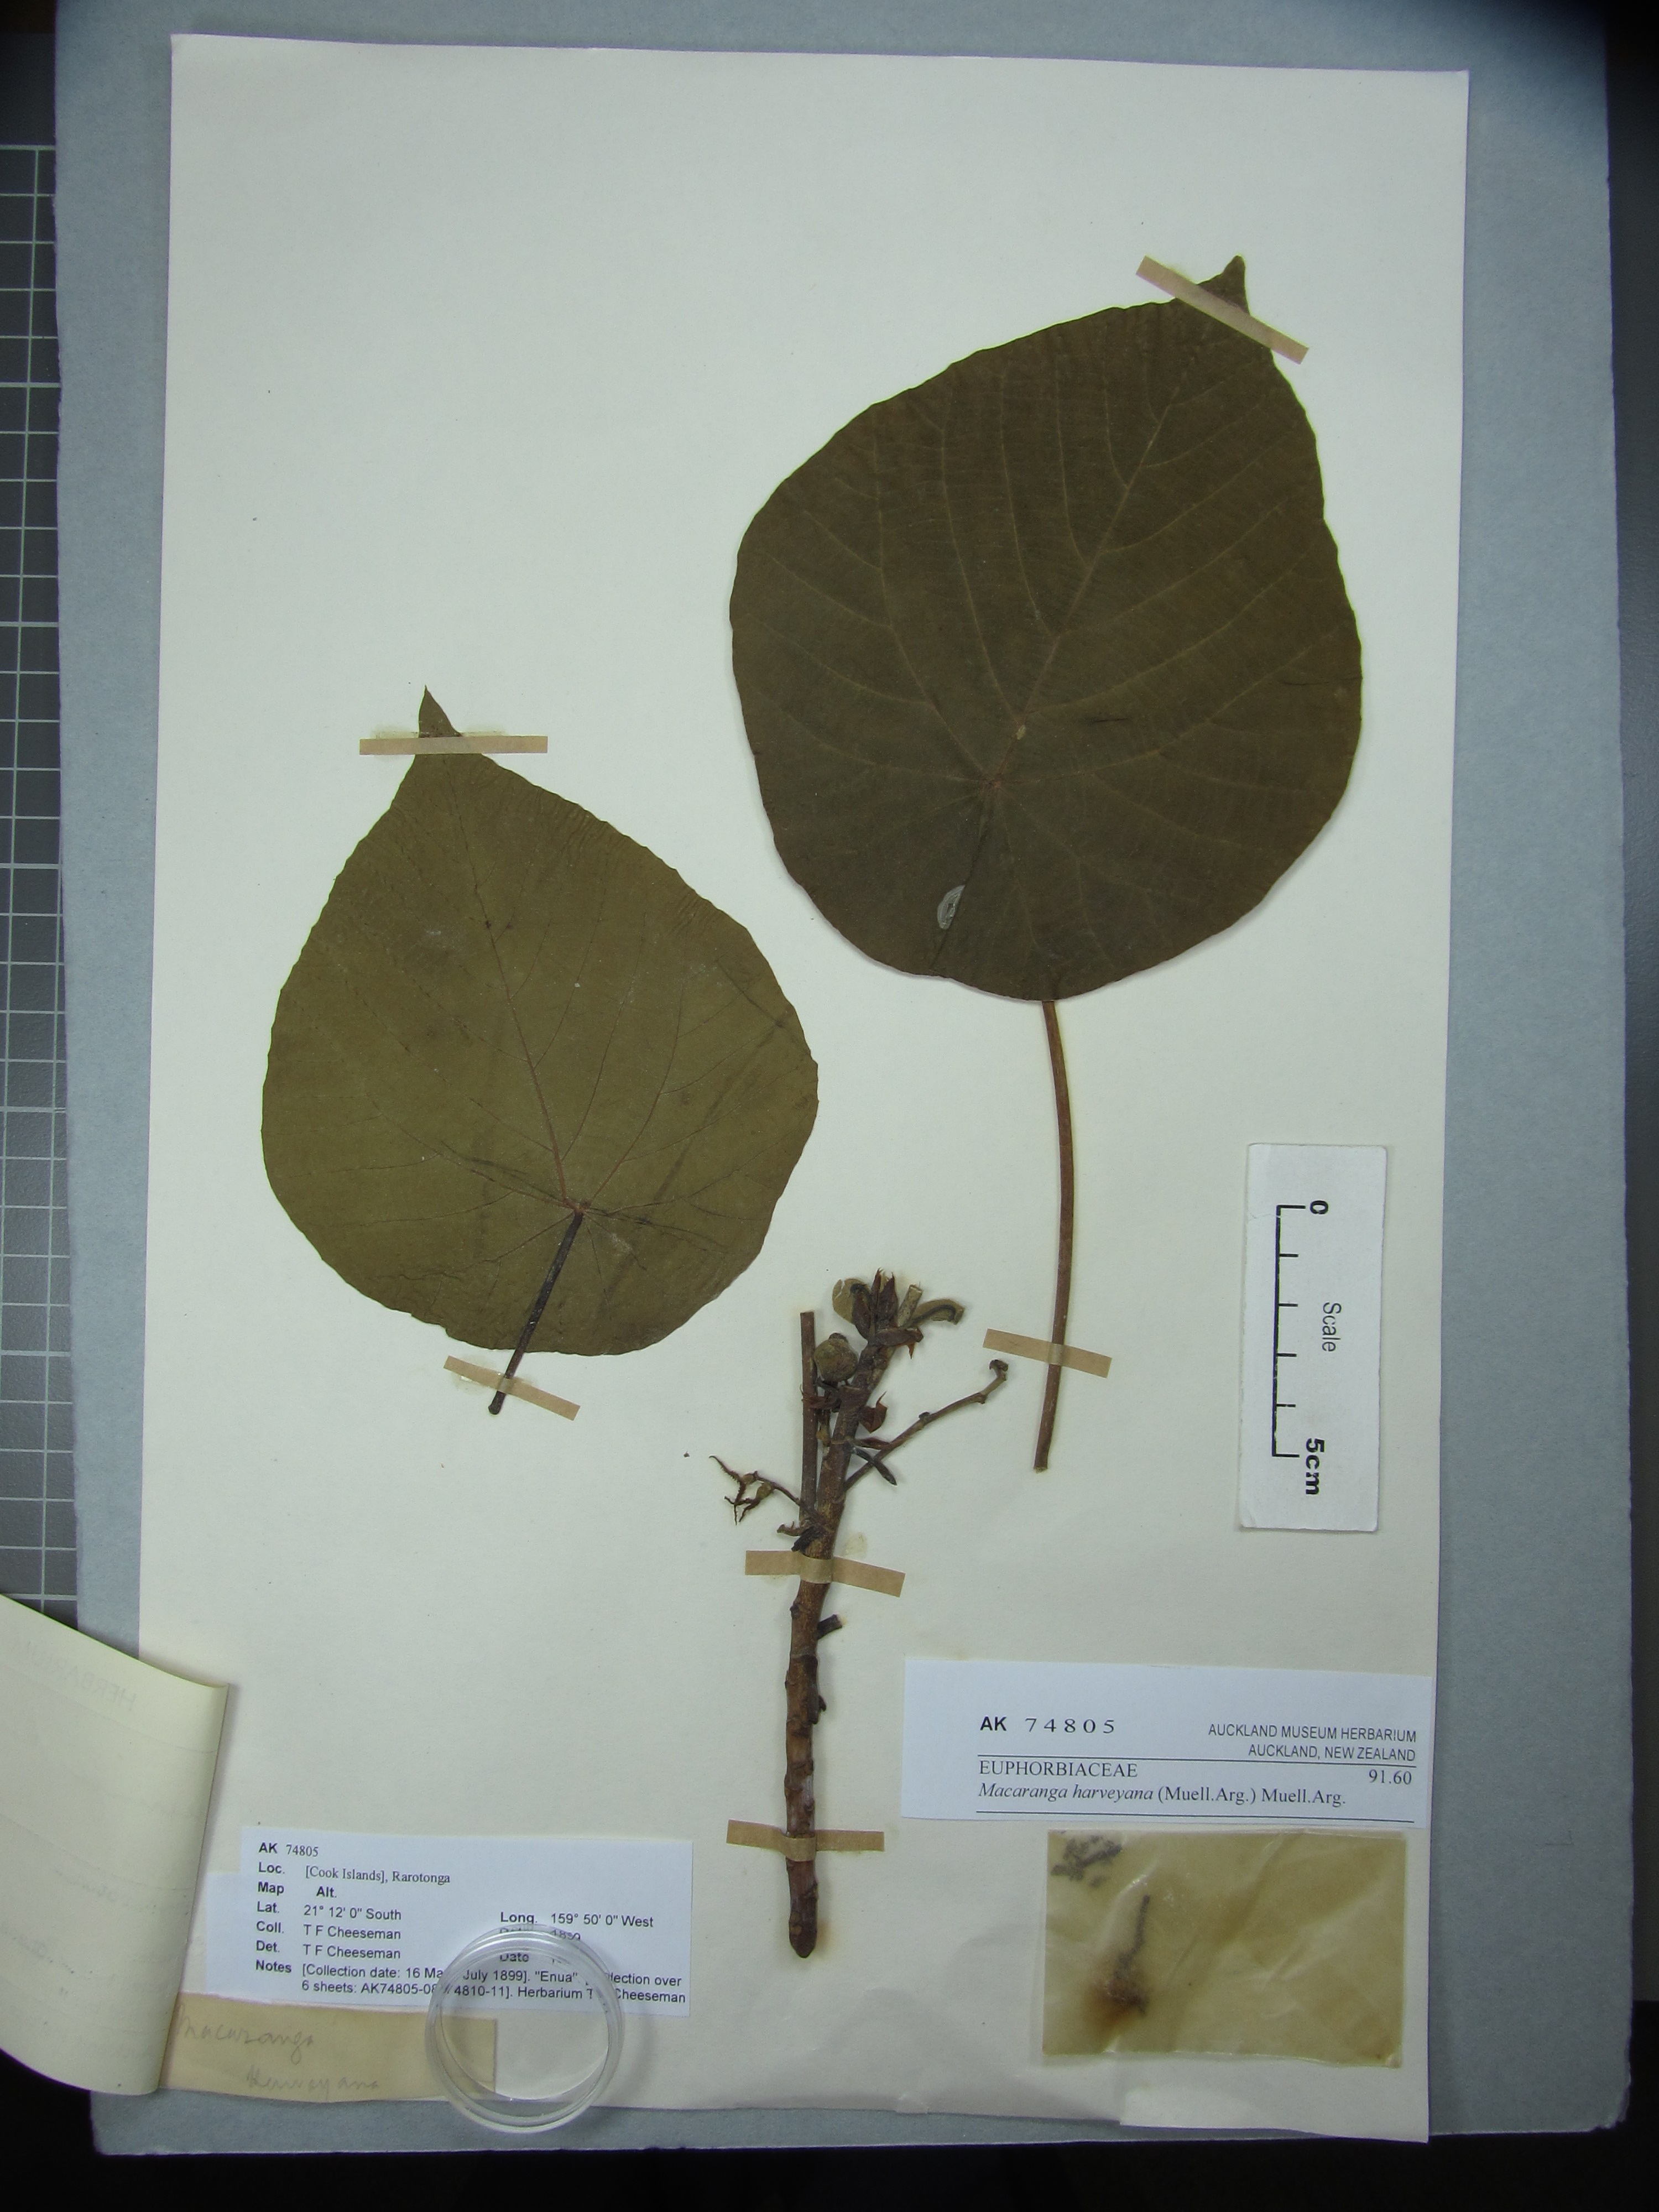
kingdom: Plantae
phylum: Tracheophyta
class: Magnoliopsida
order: Malpighiales
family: Euphorbiaceae
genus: Macaranga
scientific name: Macaranga harveyana
